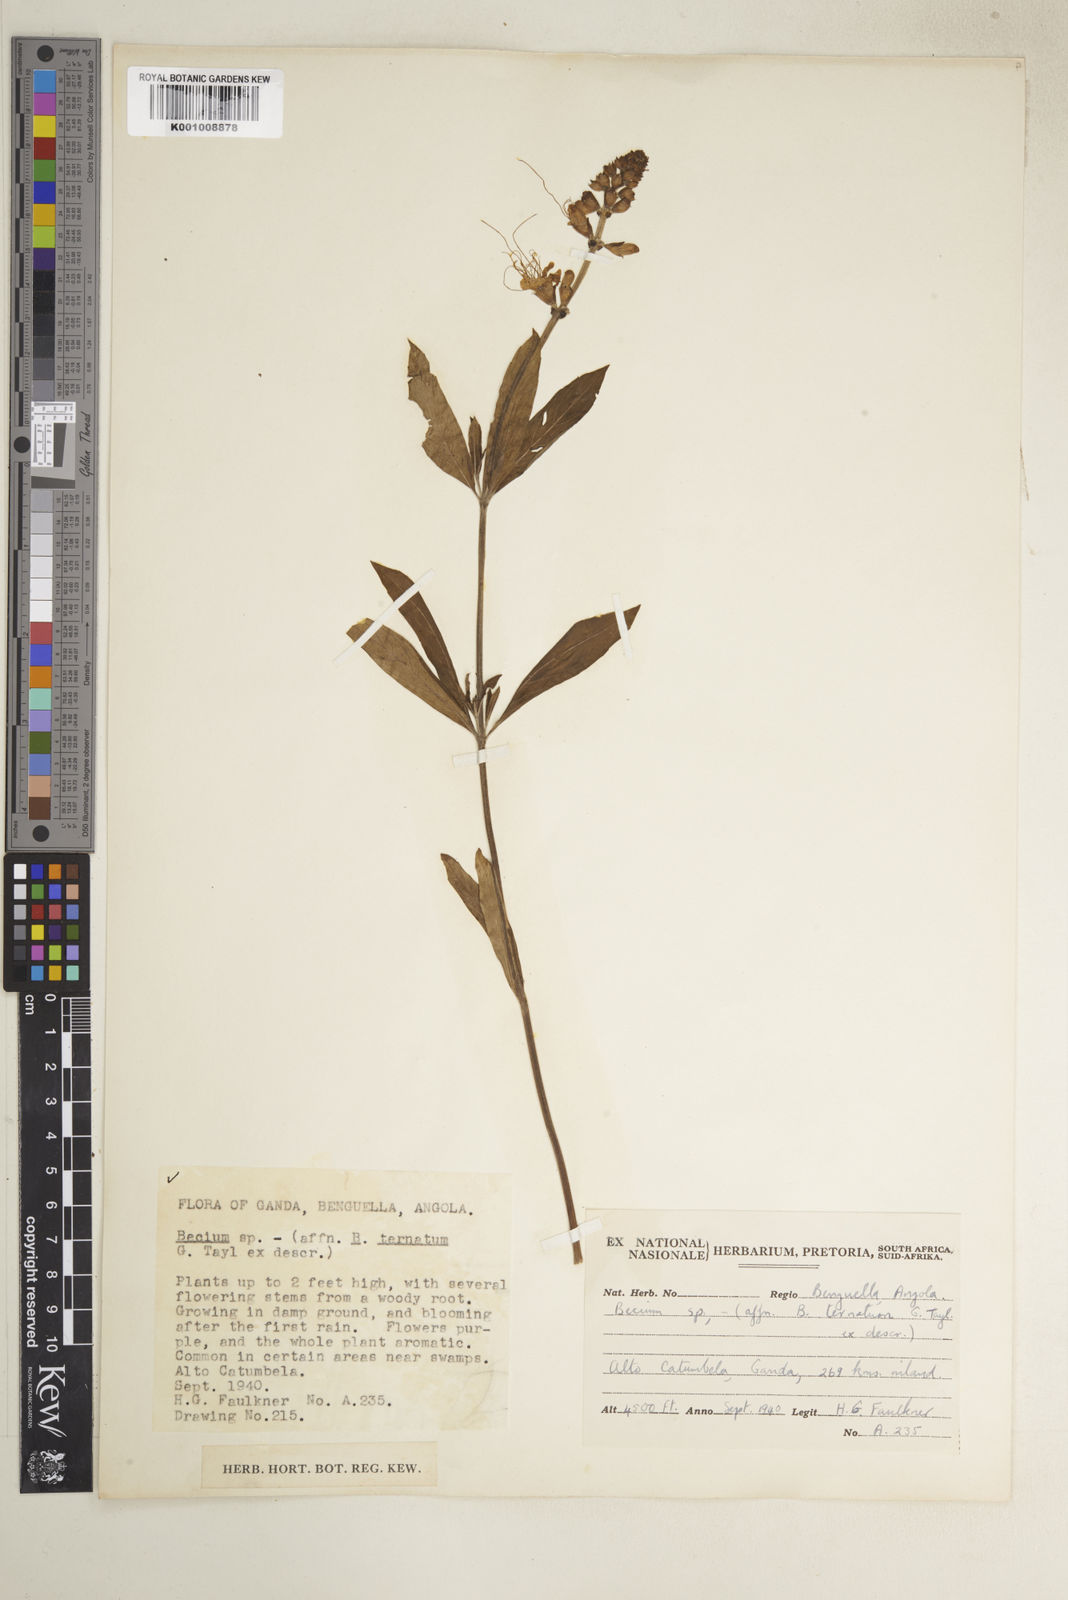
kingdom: Plantae
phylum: Tracheophyta
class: Magnoliopsida
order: Lamiales
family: Lamiaceae
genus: Ocimum
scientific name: Ocimum obovatum
